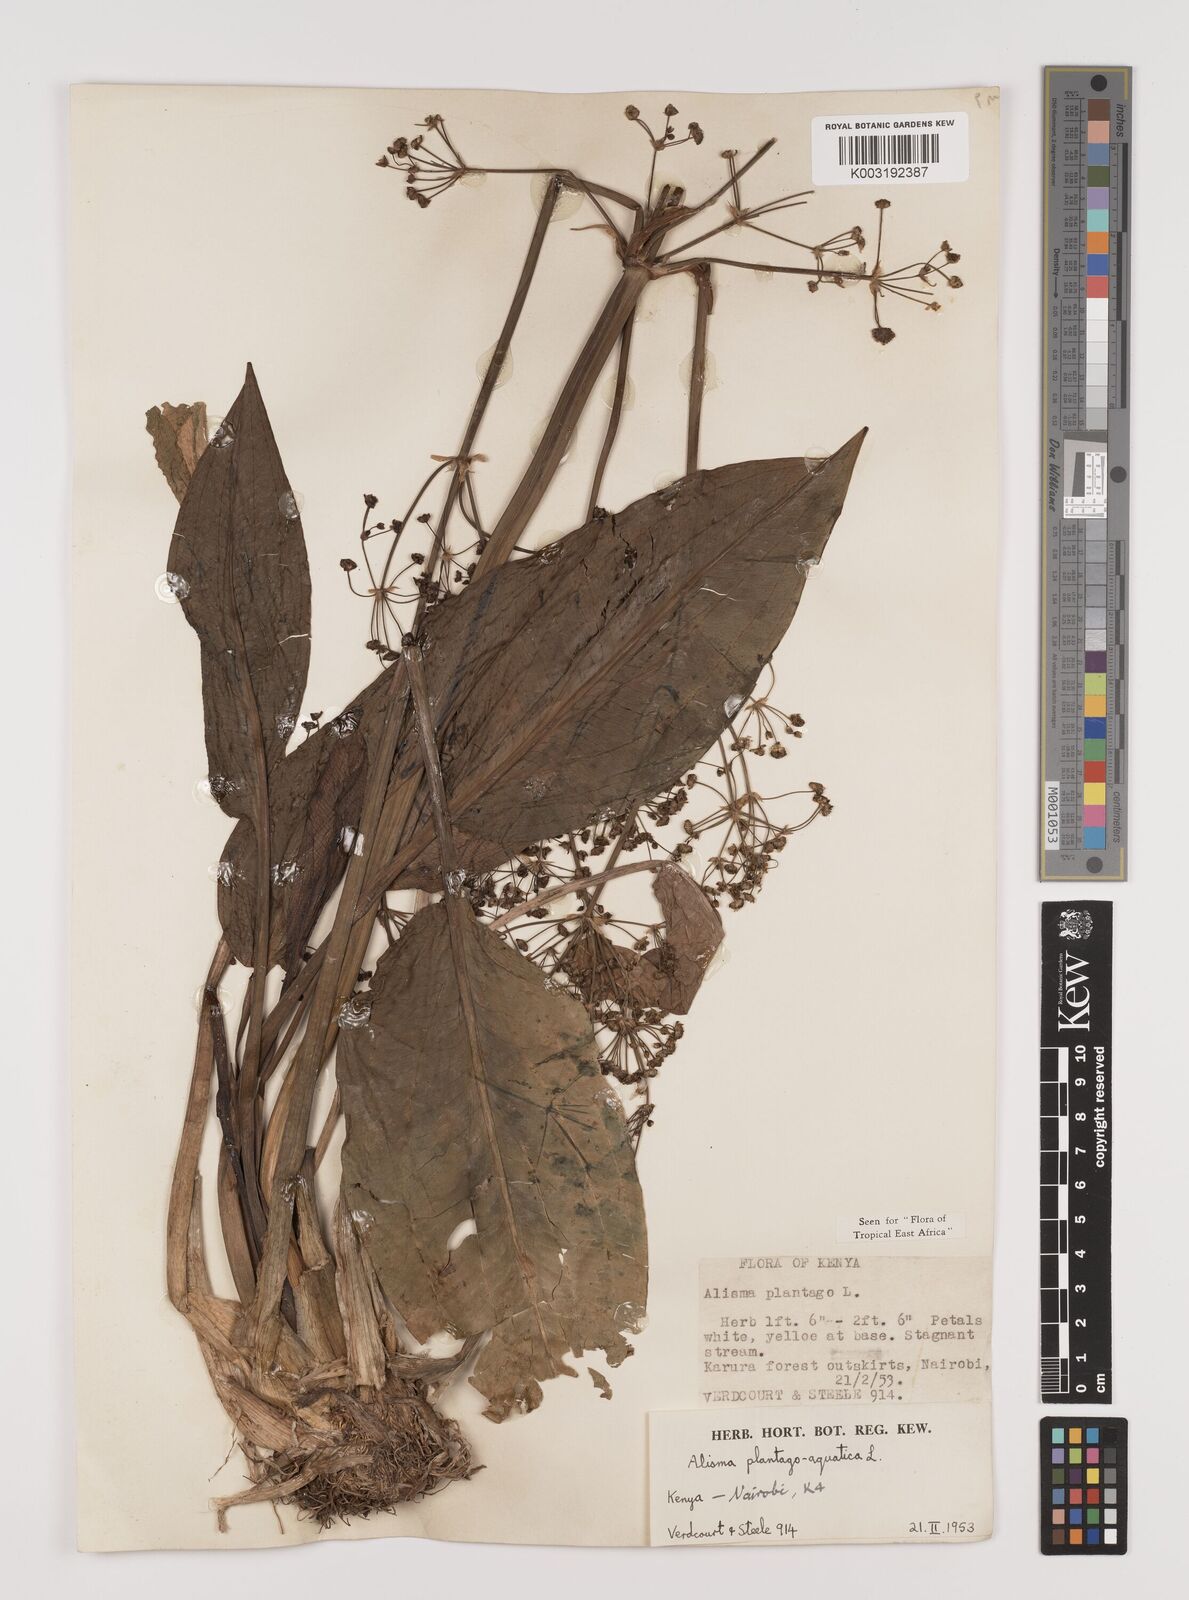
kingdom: Plantae
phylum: Tracheophyta
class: Liliopsida
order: Alismatales
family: Alismataceae
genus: Alisma
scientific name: Alisma plantago-aquatica
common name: Water-plantain
